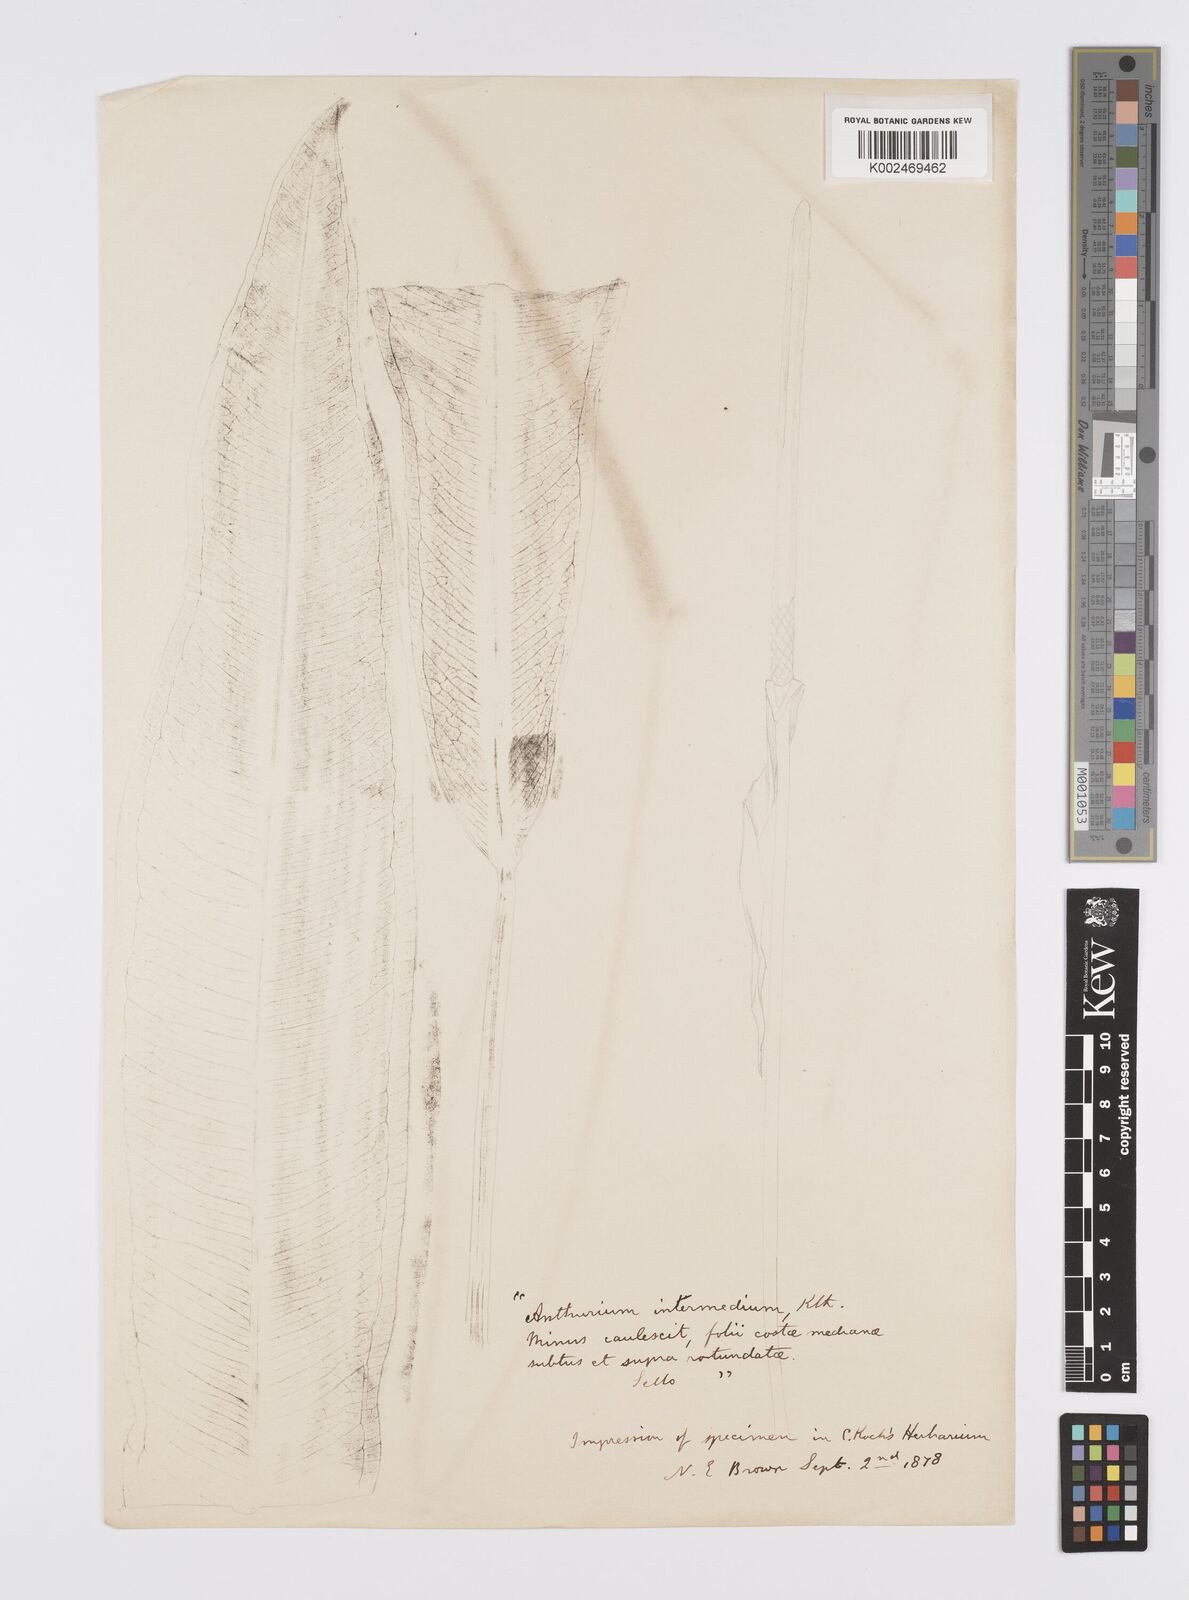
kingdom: Plantae
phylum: Tracheophyta
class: Liliopsida
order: Alismatales
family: Araceae
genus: Anthurium
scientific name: Anthurium intermedium
